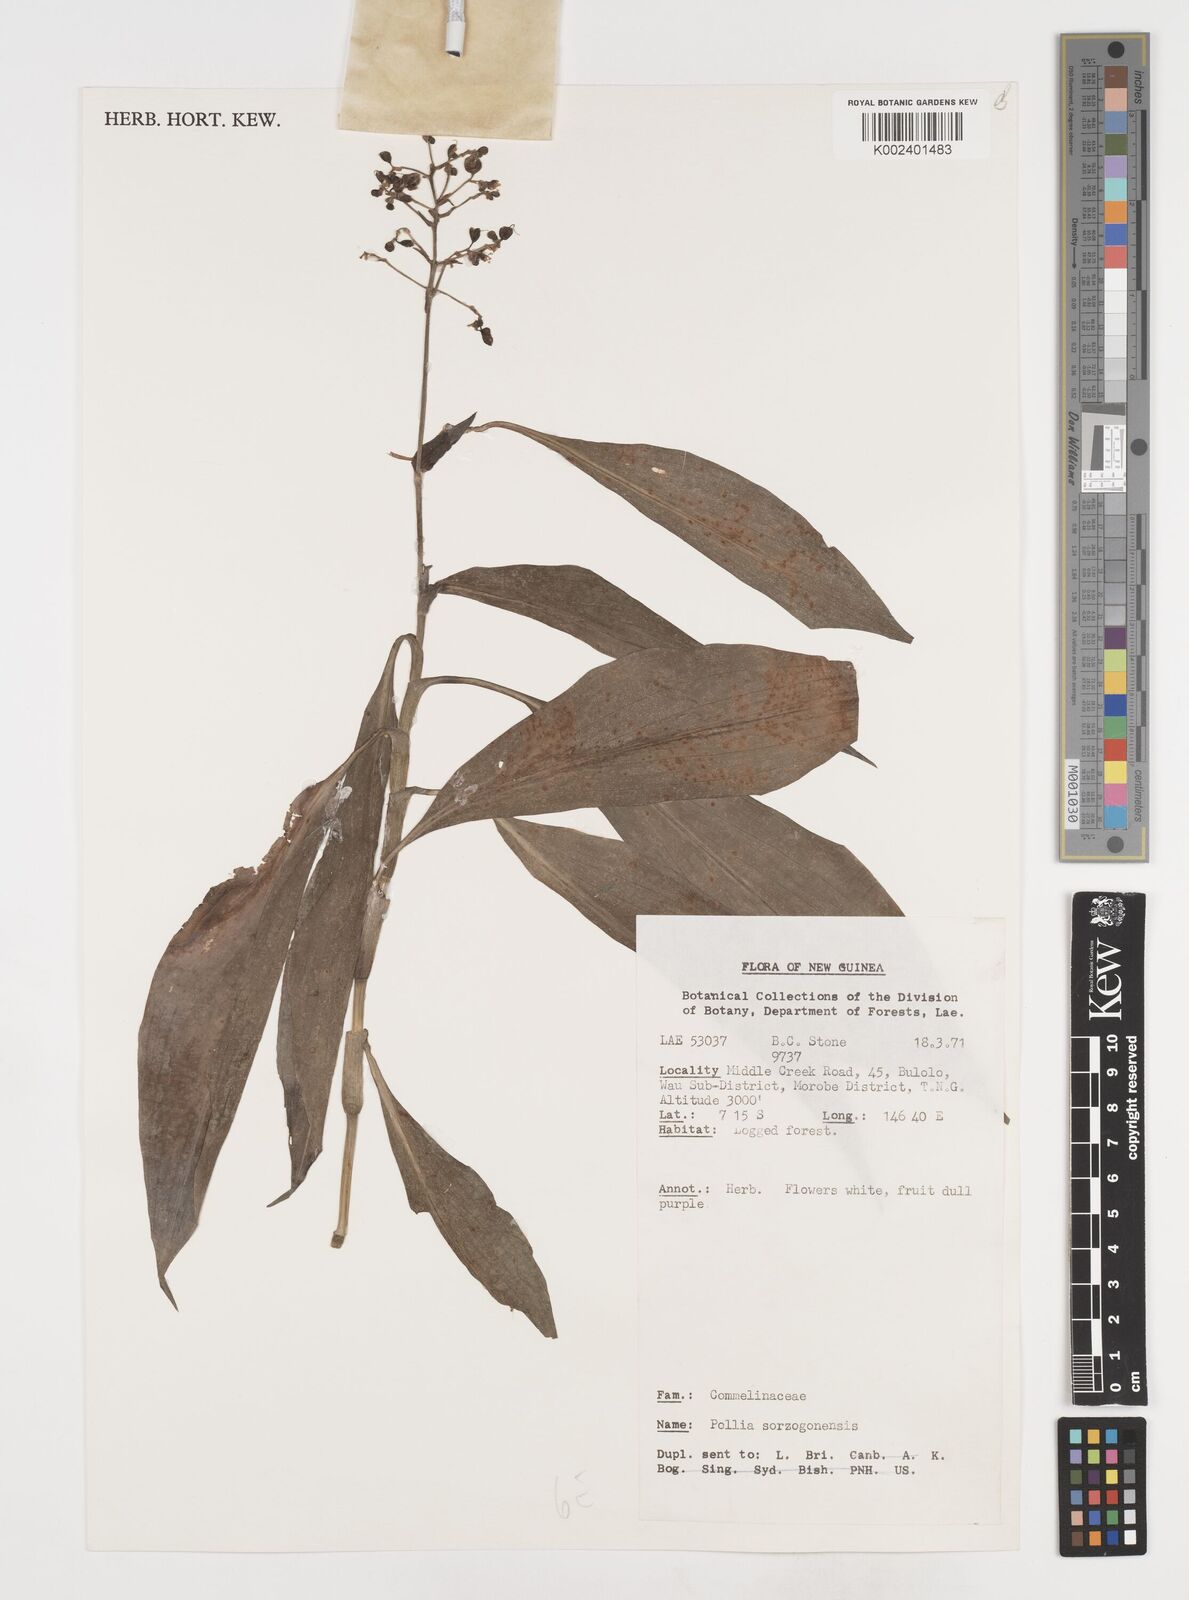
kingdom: Plantae
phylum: Tracheophyta
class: Liliopsida
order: Commelinales
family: Commelinaceae
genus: Pollia
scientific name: Pollia secundiflora
